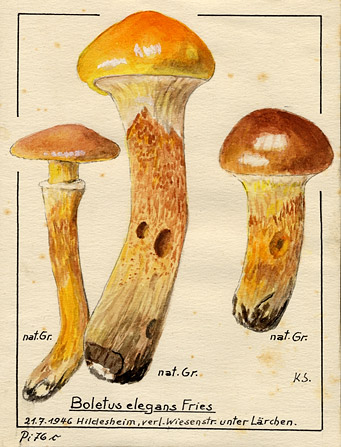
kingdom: Fungi
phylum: Basidiomycota
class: Agaricomycetes
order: Boletales
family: Suillaceae
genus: Suillus
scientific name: Suillus grevillei
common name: Larch bolete
